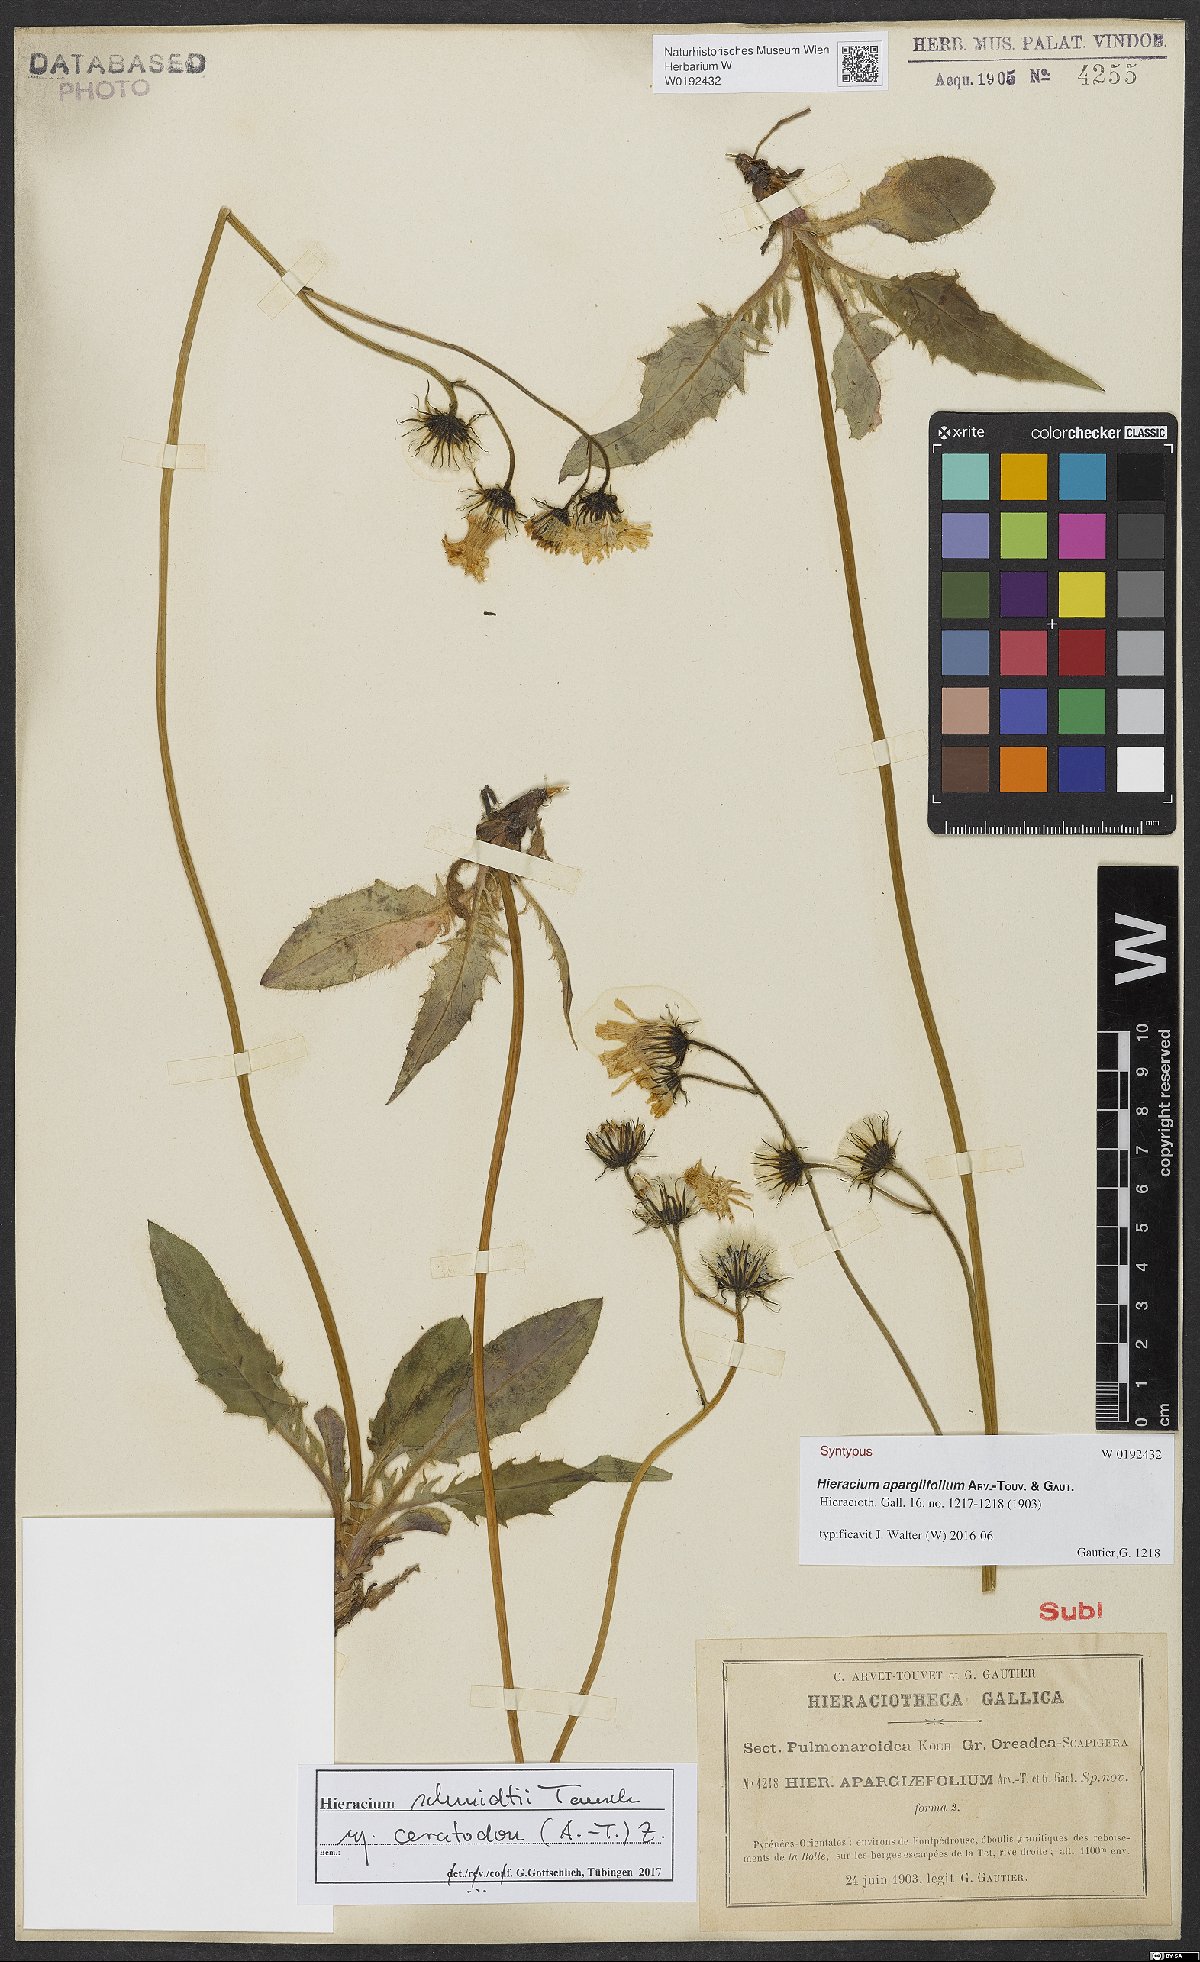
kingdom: Plantae
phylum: Tracheophyta
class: Magnoliopsida
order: Asterales
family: Asteraceae
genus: Hieracium
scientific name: Hieracium schmidtii
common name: Schmidt's hawkweed
